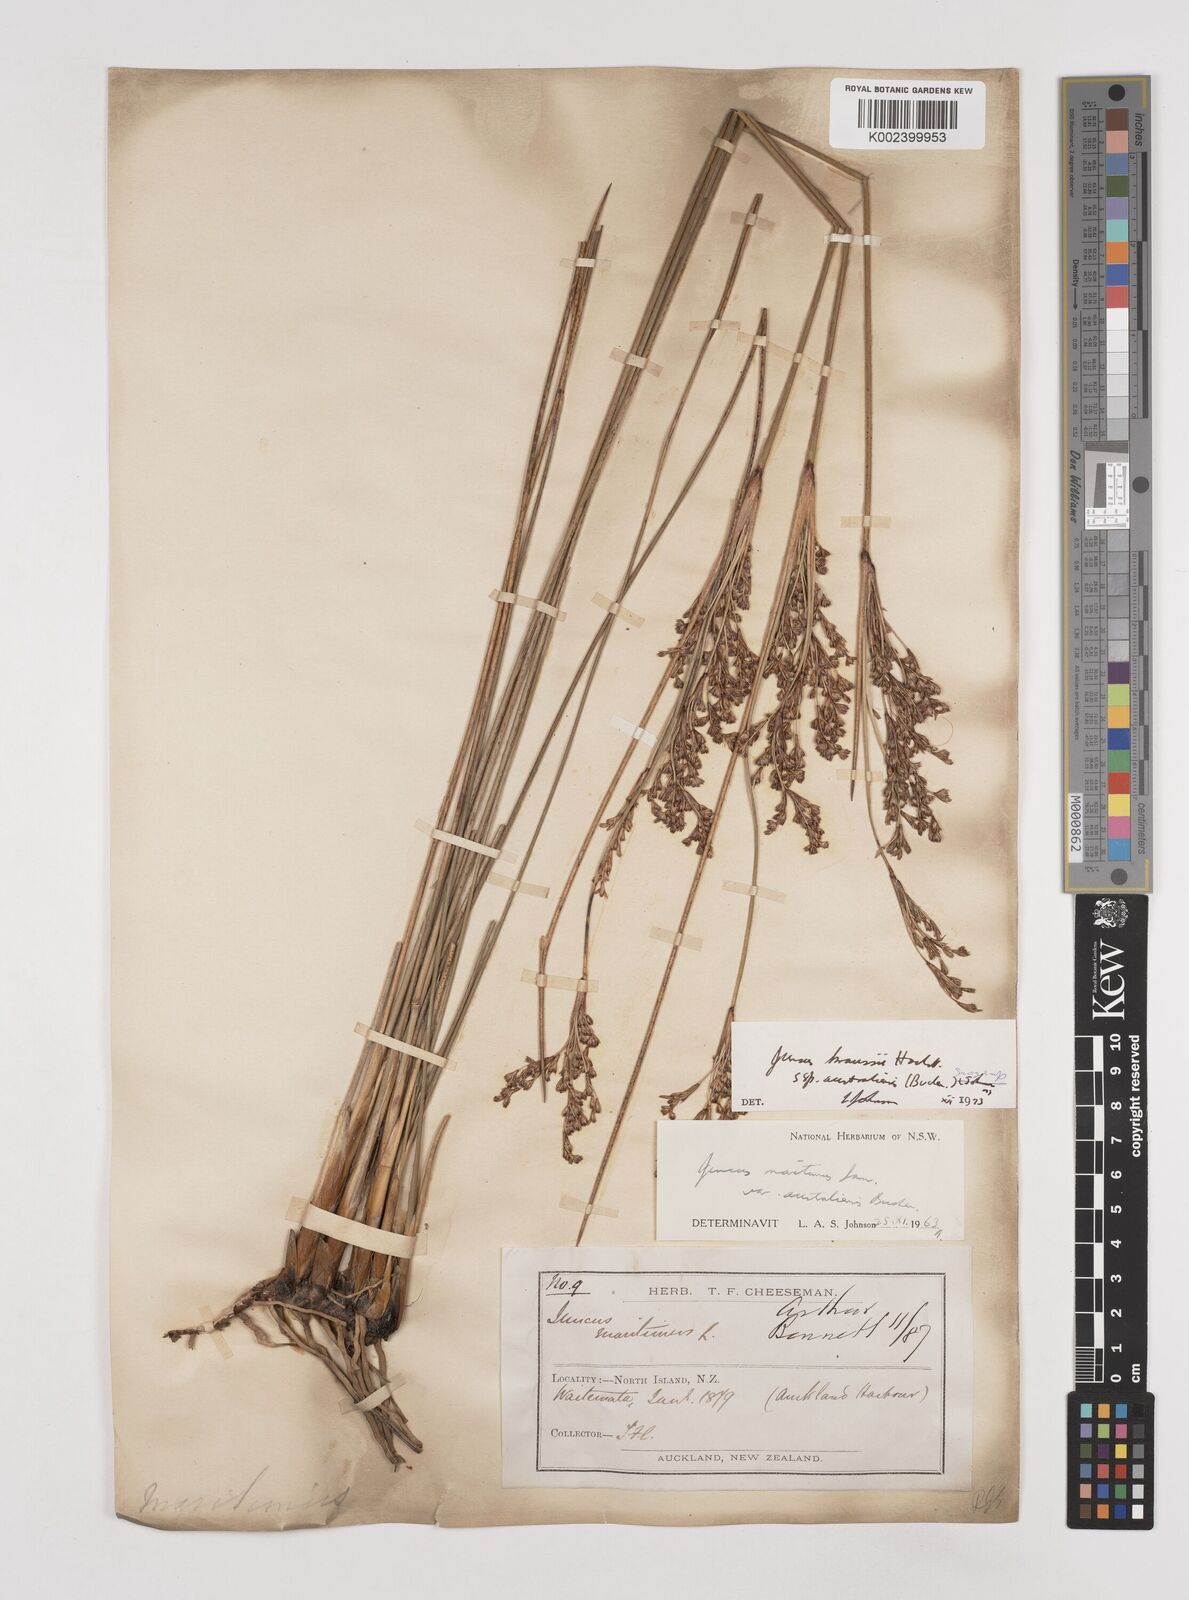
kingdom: Plantae
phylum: Tracheophyta
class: Liliopsida
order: Poales
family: Juncaceae
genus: Juncus
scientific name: Juncus kraussii
